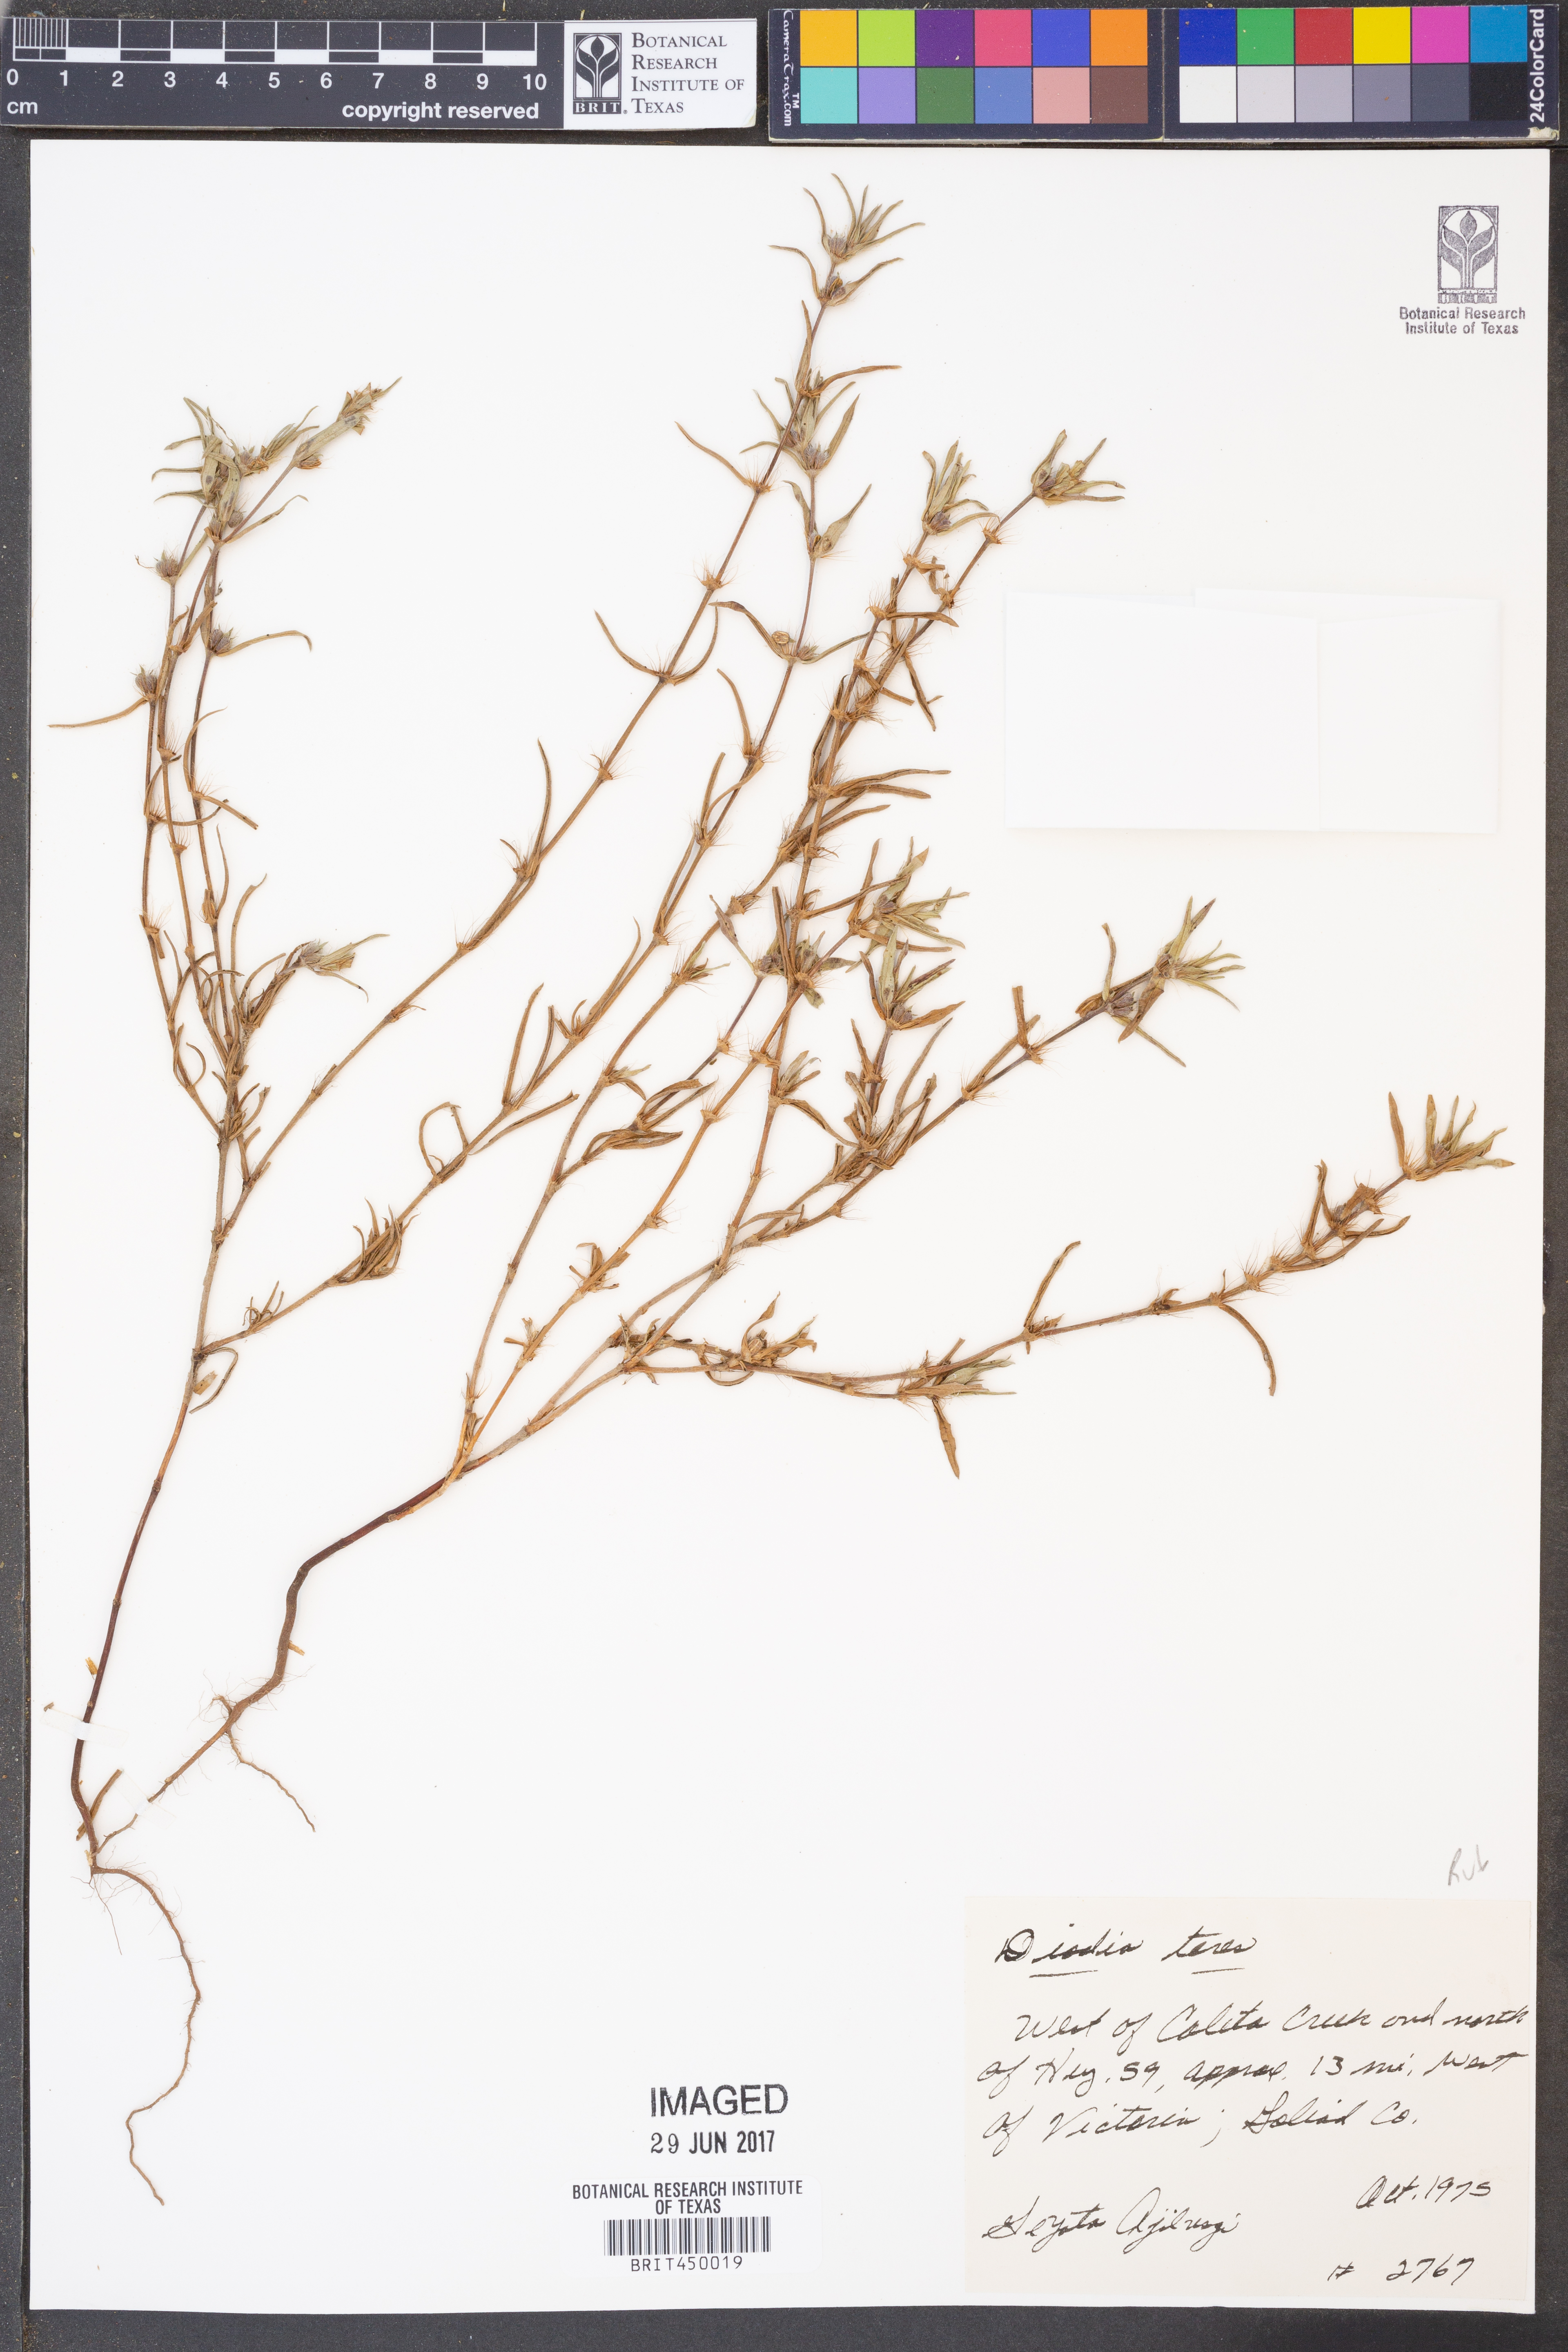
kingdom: Plantae
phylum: Tracheophyta
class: Magnoliopsida
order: Gentianales
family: Rubiaceae
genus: Hexasepalum
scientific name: Hexasepalum teres
